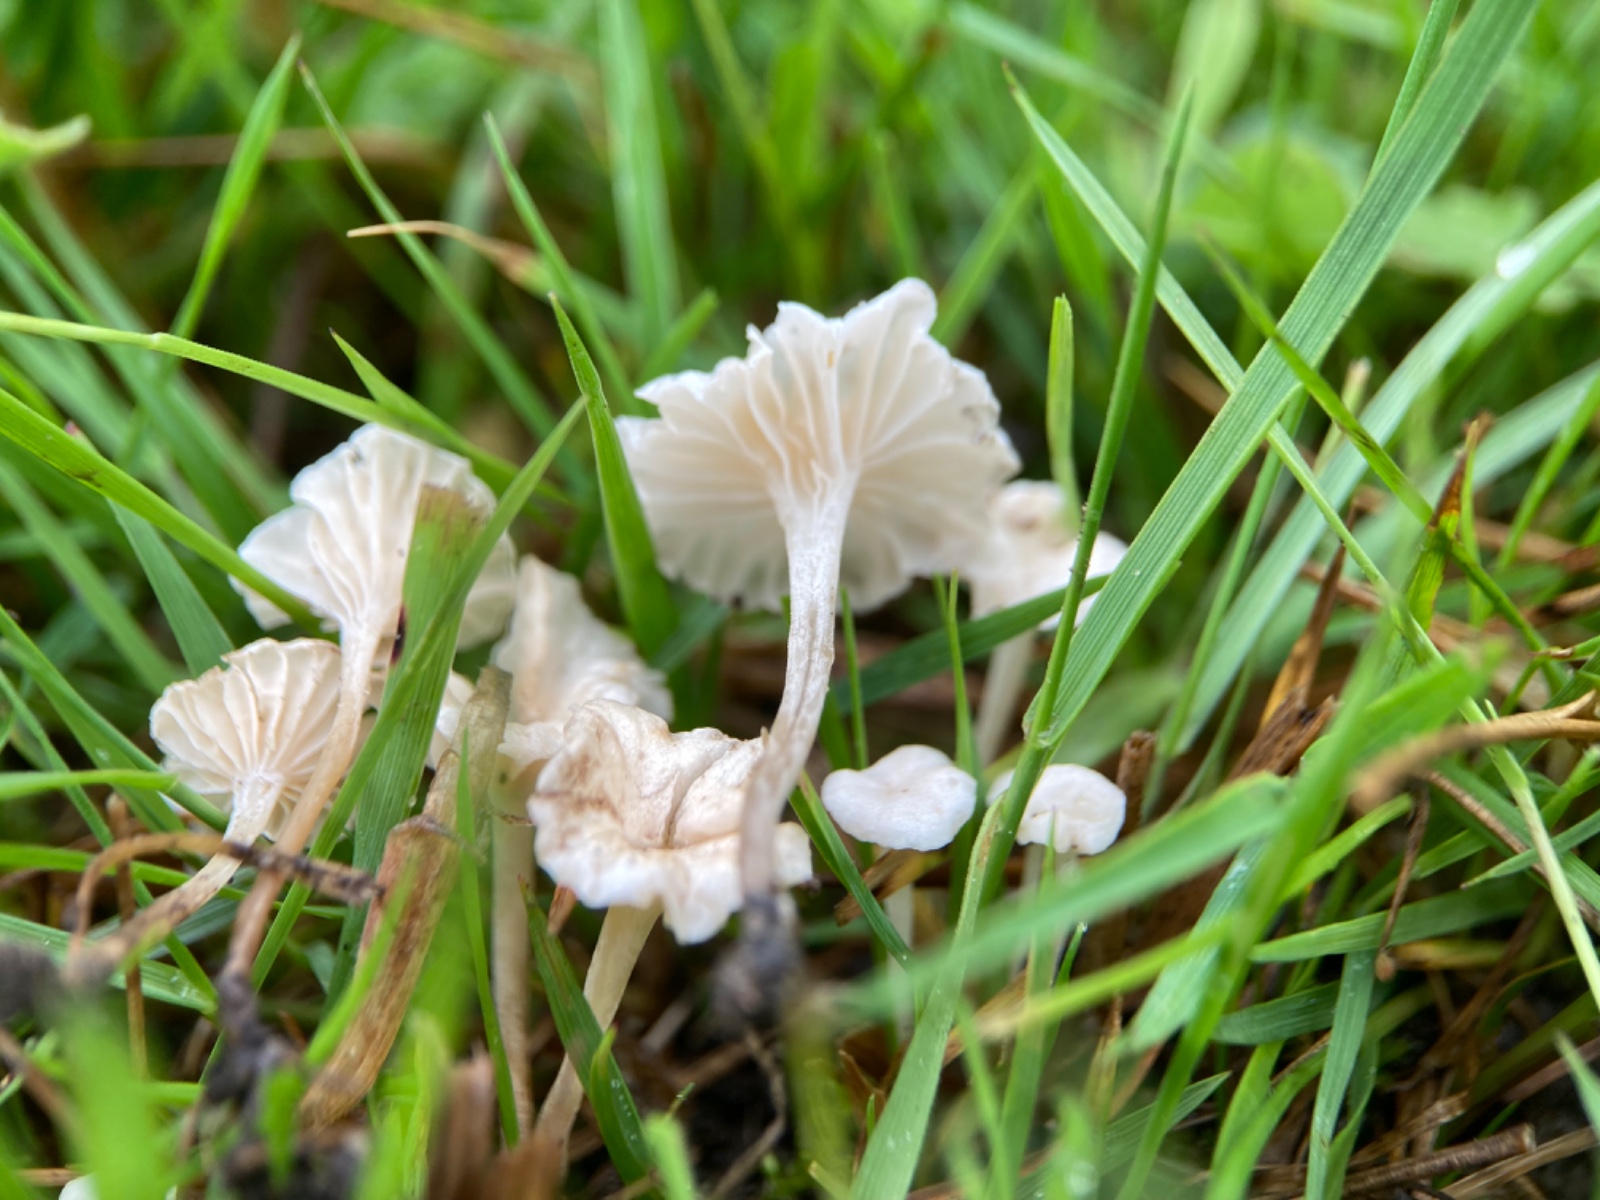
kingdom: Fungi
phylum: Basidiomycota
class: Agaricomycetes
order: Agaricales
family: Omphalotaceae
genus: Marasmiellus
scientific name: Marasmiellus tricolor
